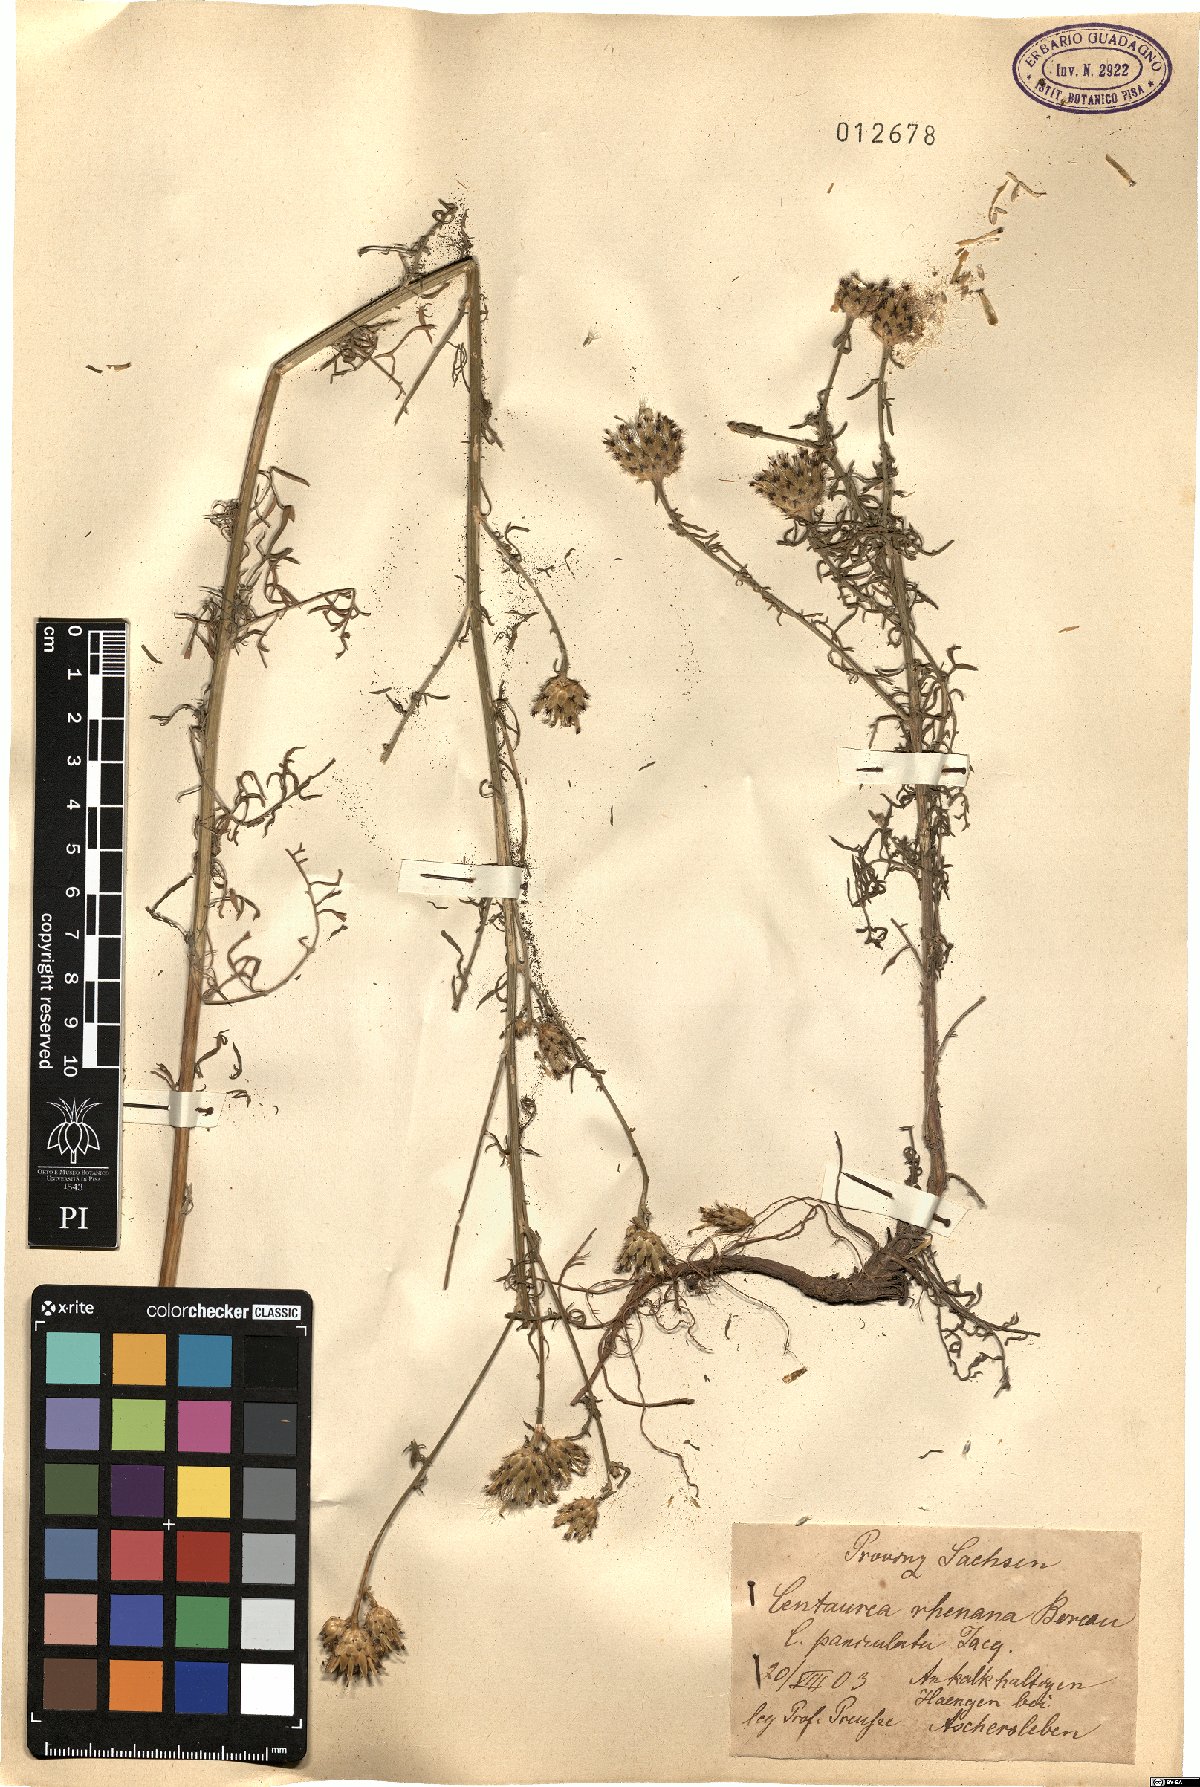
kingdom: Plantae
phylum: Tracheophyta
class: Magnoliopsida
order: Asterales
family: Asteraceae
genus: Centaurea
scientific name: Centaurea stoebe
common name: Spotted knapweed
